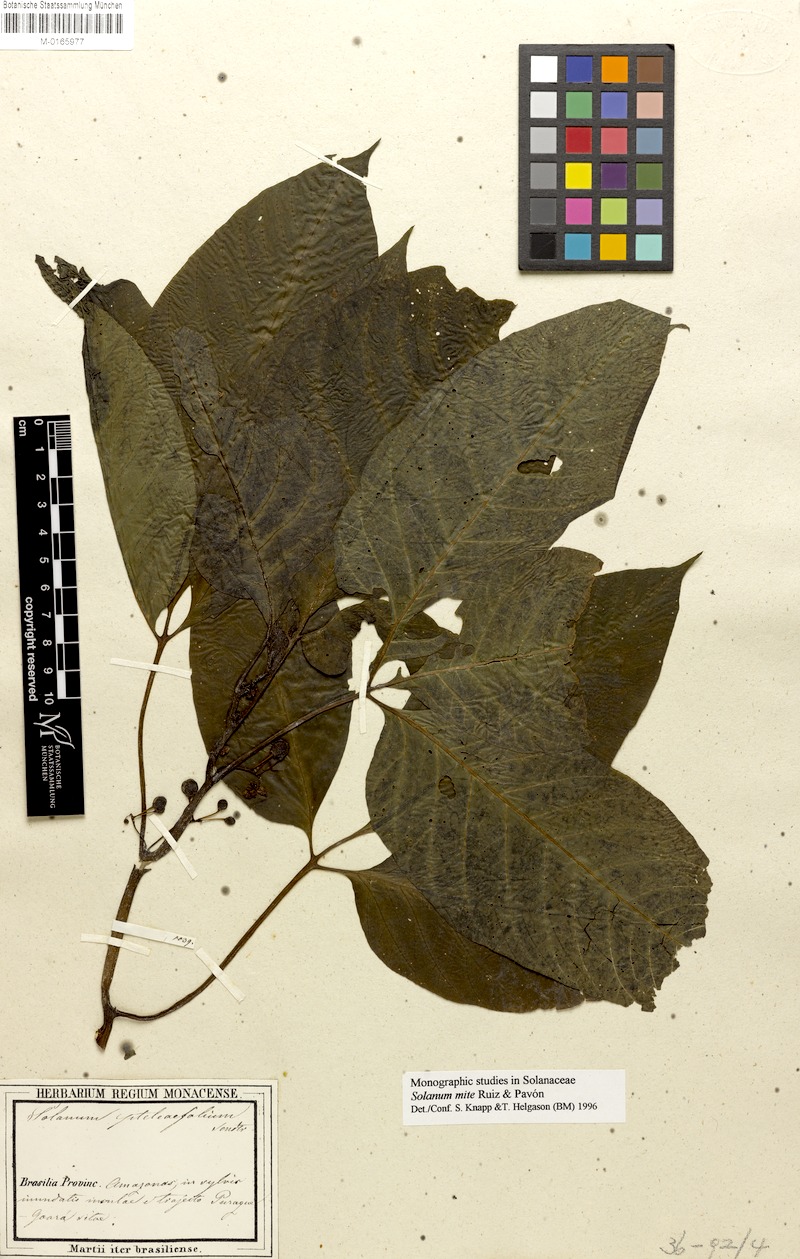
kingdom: Plantae
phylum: Tracheophyta
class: Magnoliopsida
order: Solanales
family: Solanaceae
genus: Solanum
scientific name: Solanum mite
